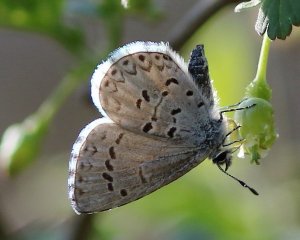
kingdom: Animalia
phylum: Arthropoda
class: Insecta
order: Lepidoptera
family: Lycaenidae
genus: Celastrina
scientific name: Celastrina lucia
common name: Northern Spring Azure
